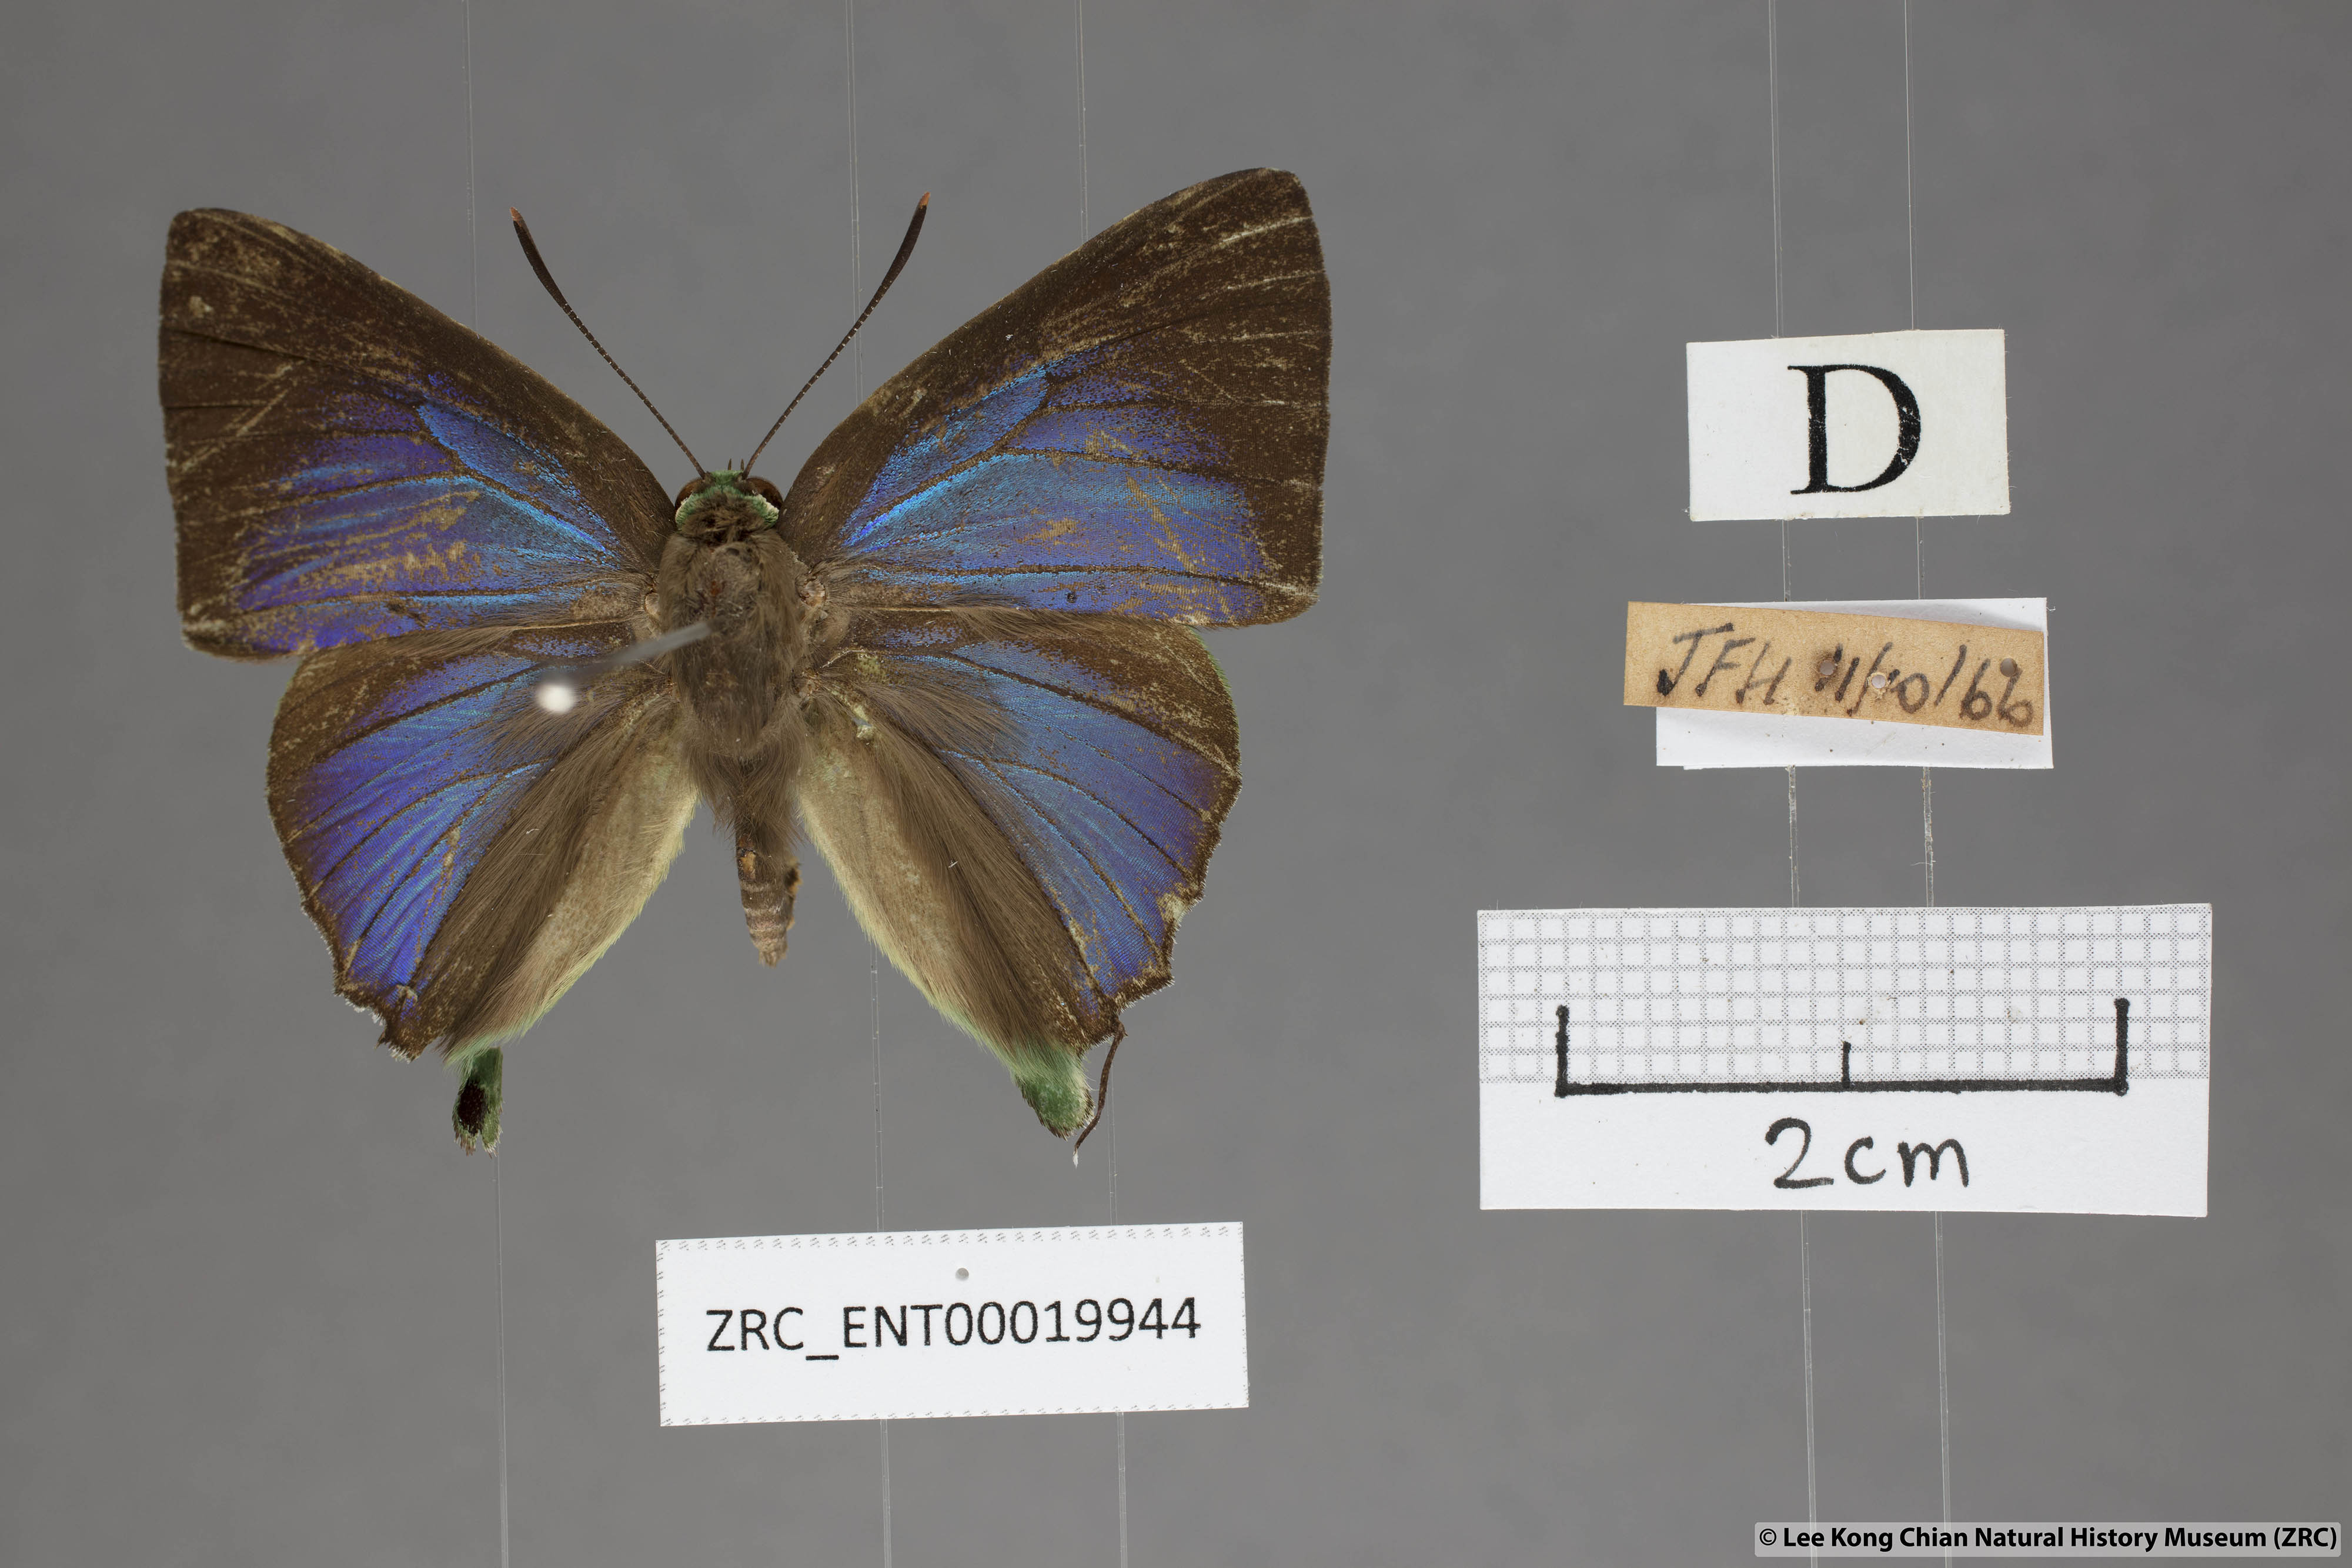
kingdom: Animalia
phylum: Arthropoda
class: Insecta
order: Lepidoptera
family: Lycaenidae
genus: Artipe
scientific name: Artipe eryx
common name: Green flash
